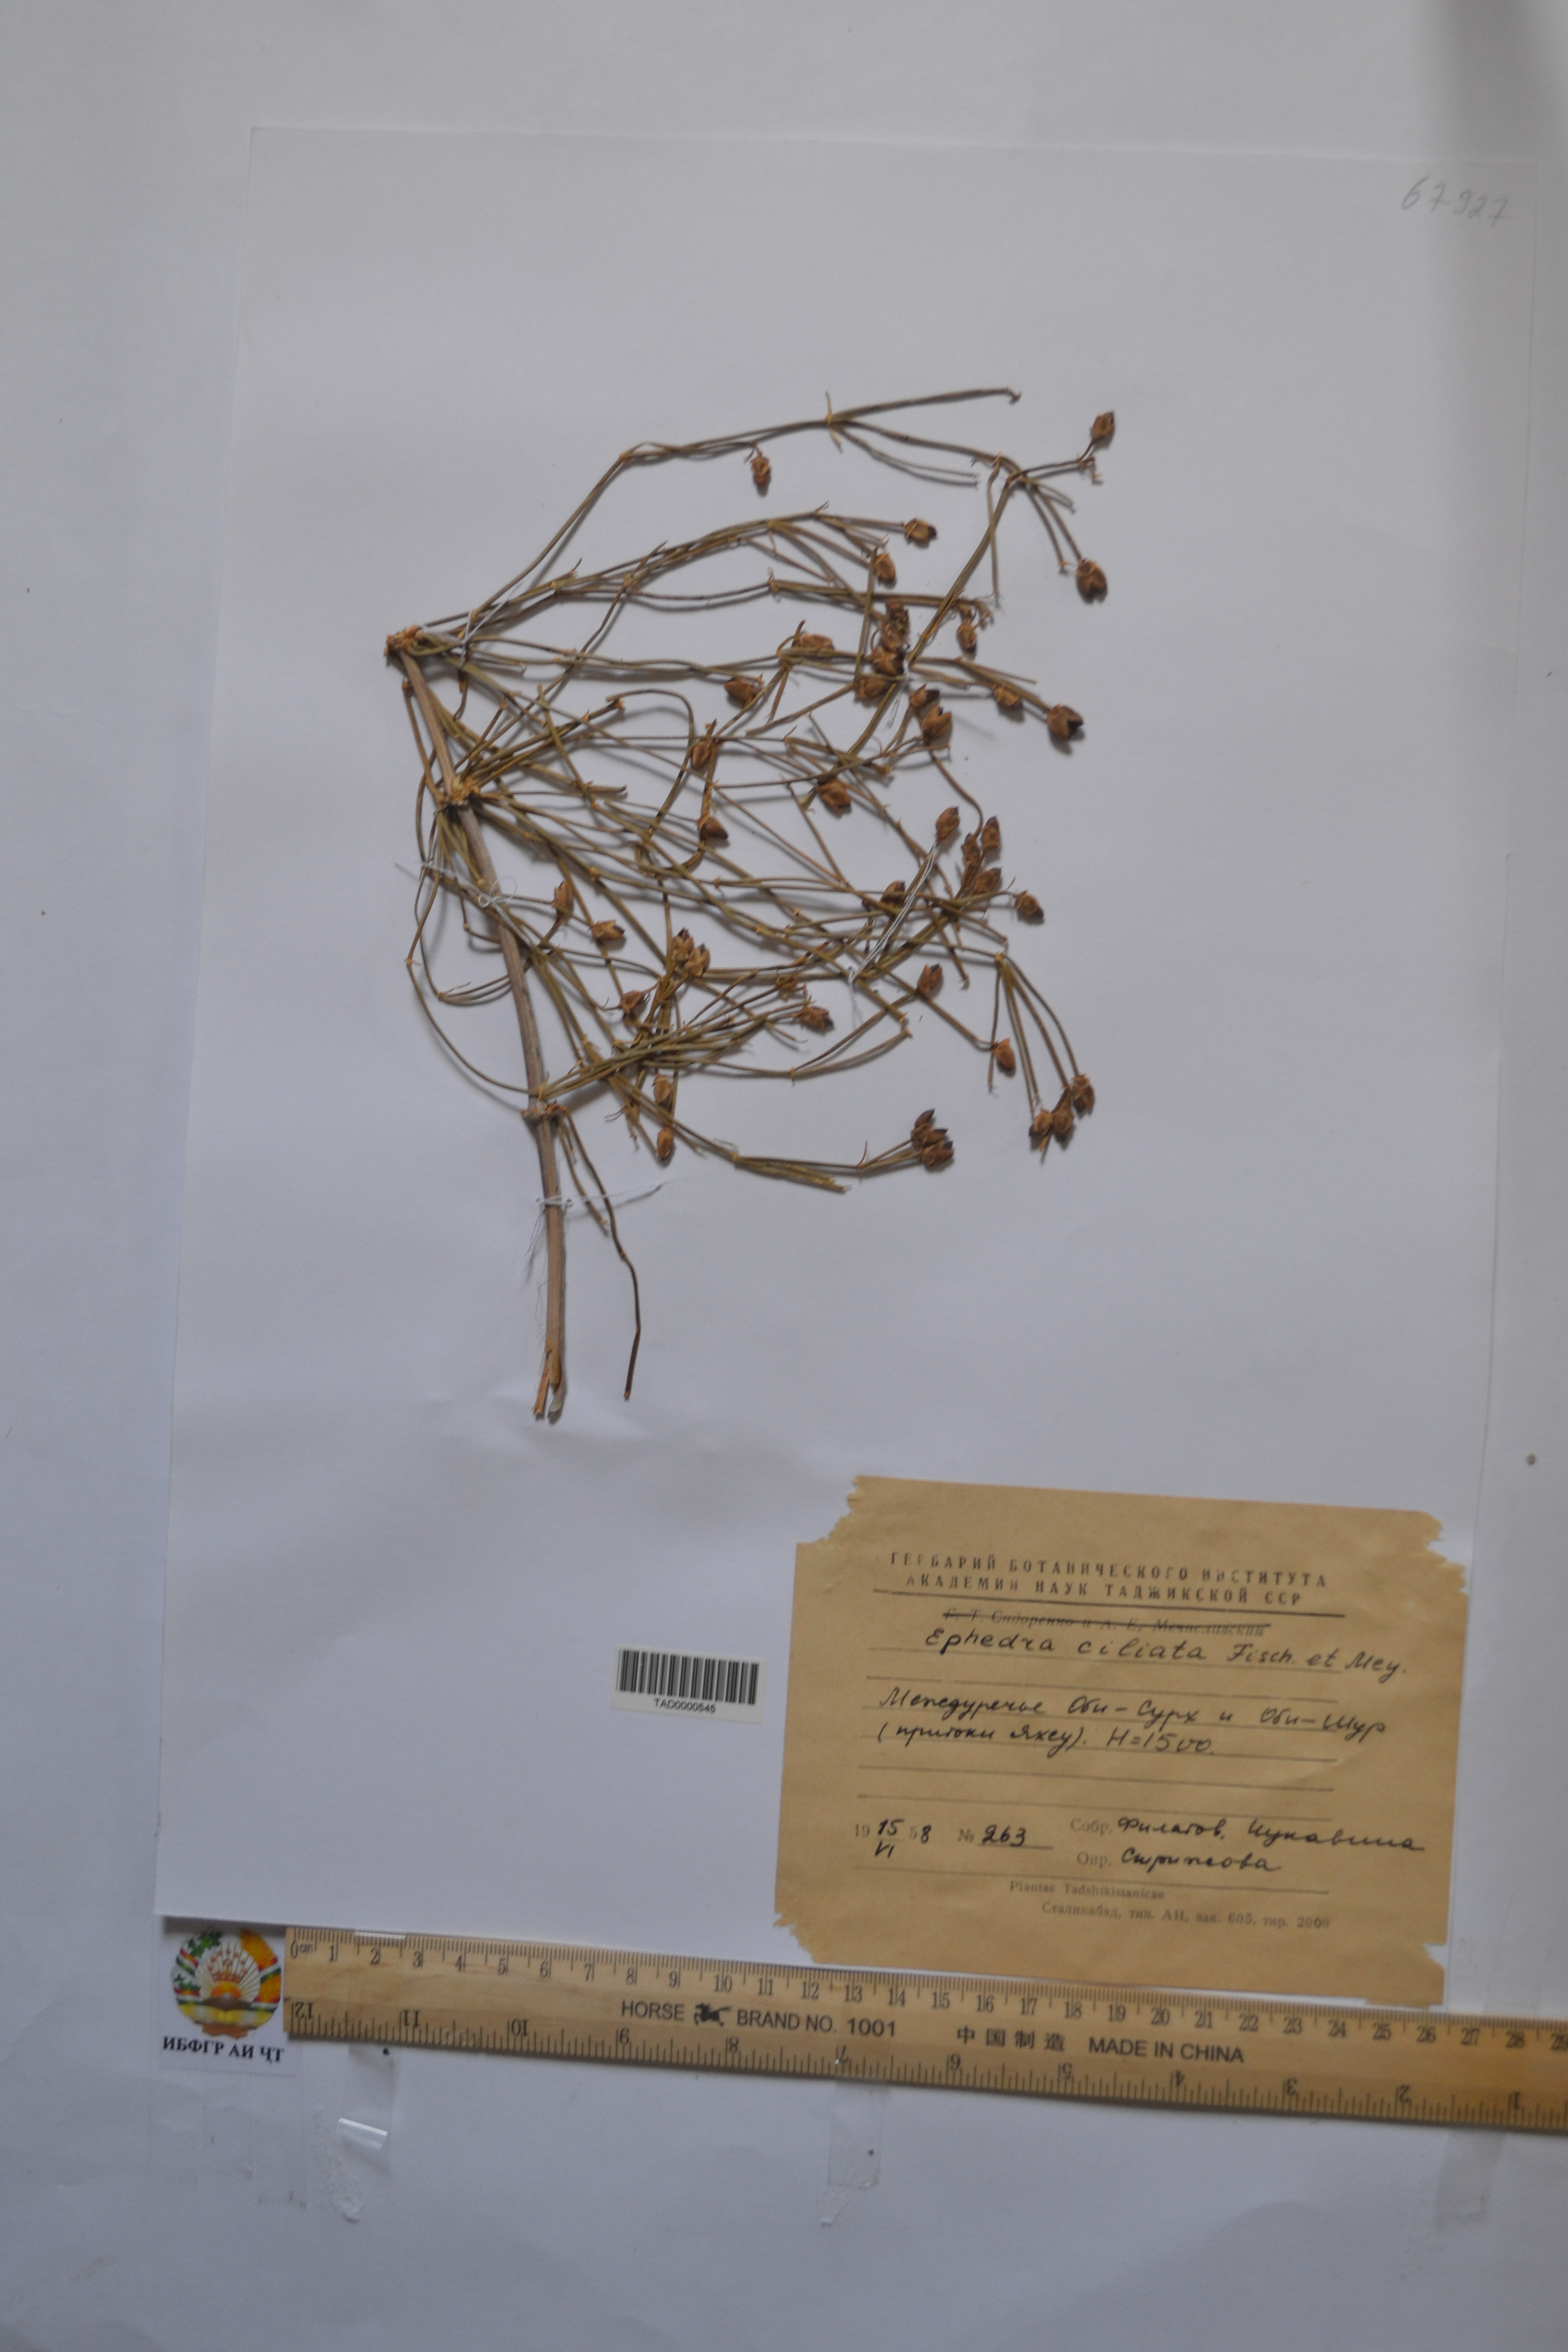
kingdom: Plantae
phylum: Tracheophyta
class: Gnetopsida
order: Ephedrales
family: Ephedraceae
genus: Ephedra
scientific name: Ephedra ciliata
